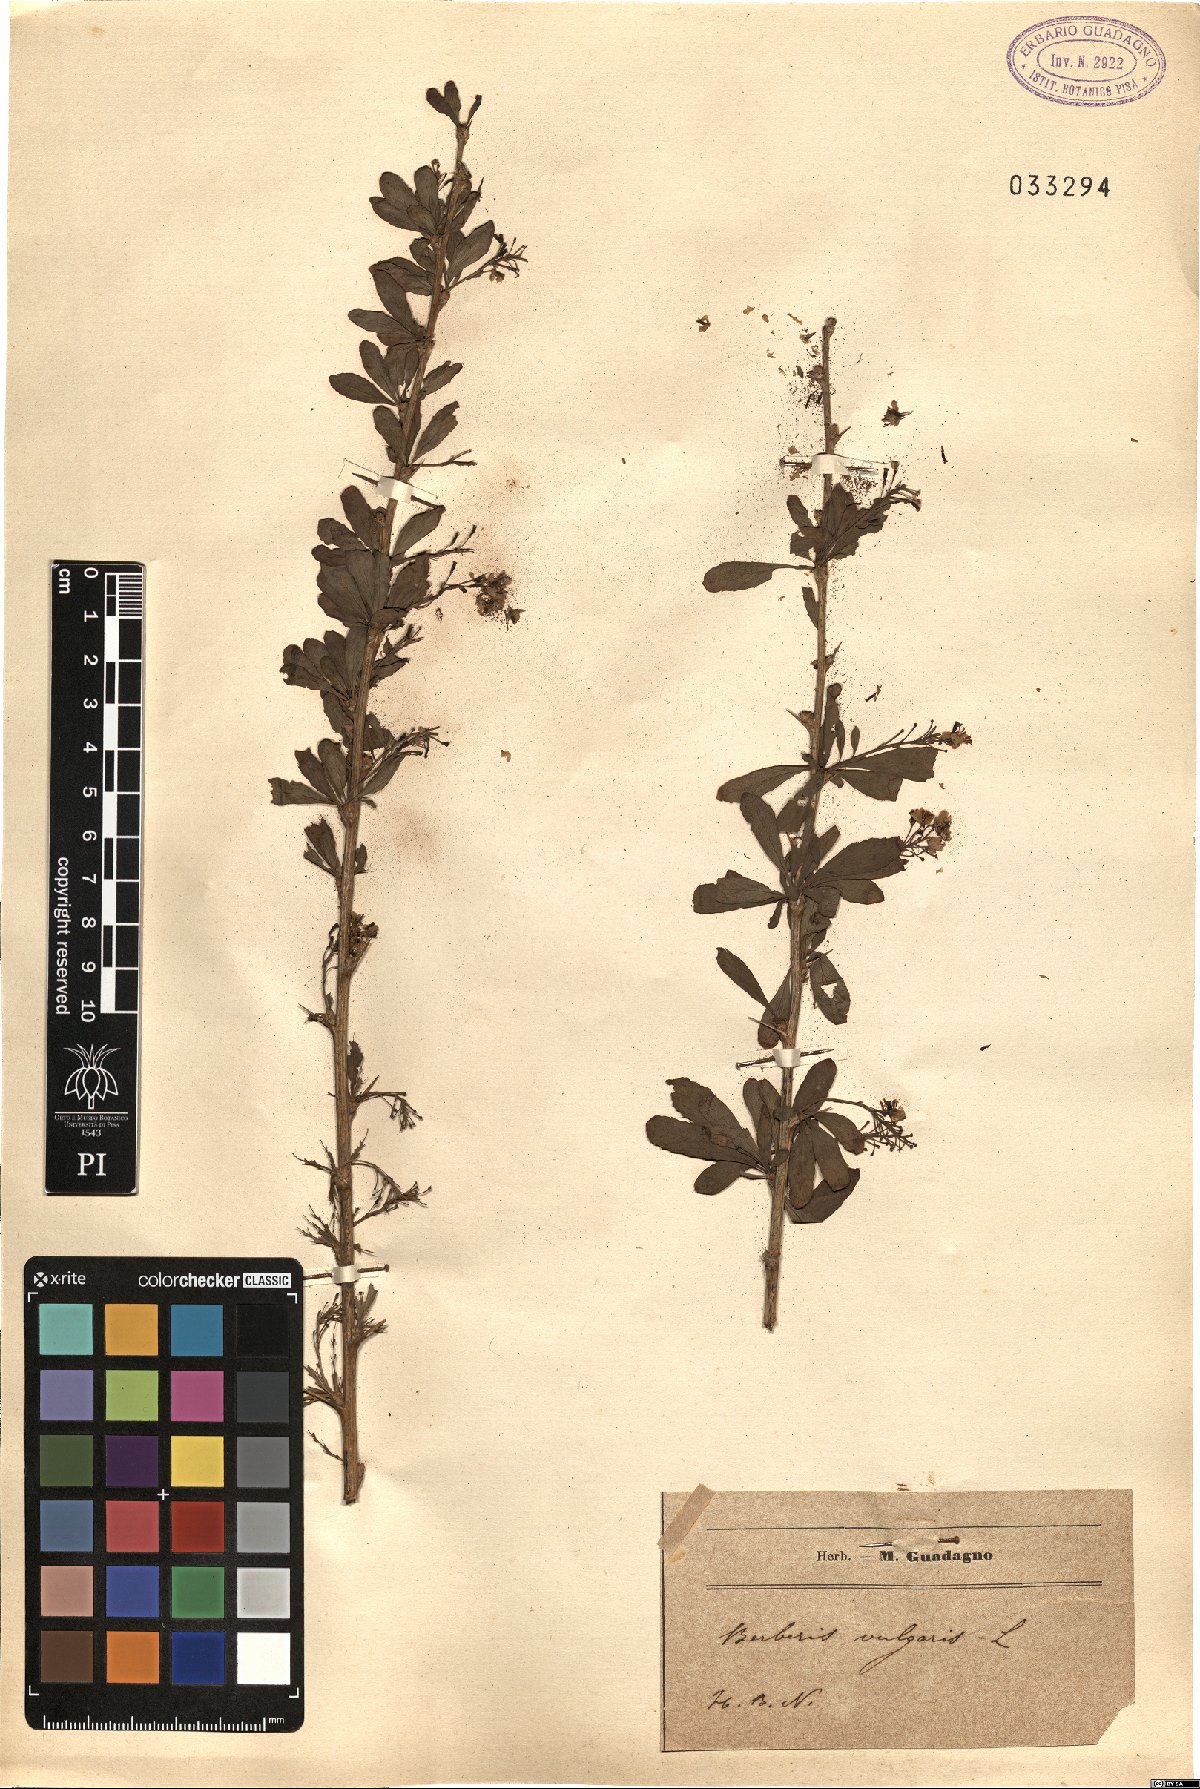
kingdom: Plantae
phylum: Tracheophyta
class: Magnoliopsida
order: Ranunculales
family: Berberidaceae
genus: Berberis
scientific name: Berberis vulgaris
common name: Barberry
